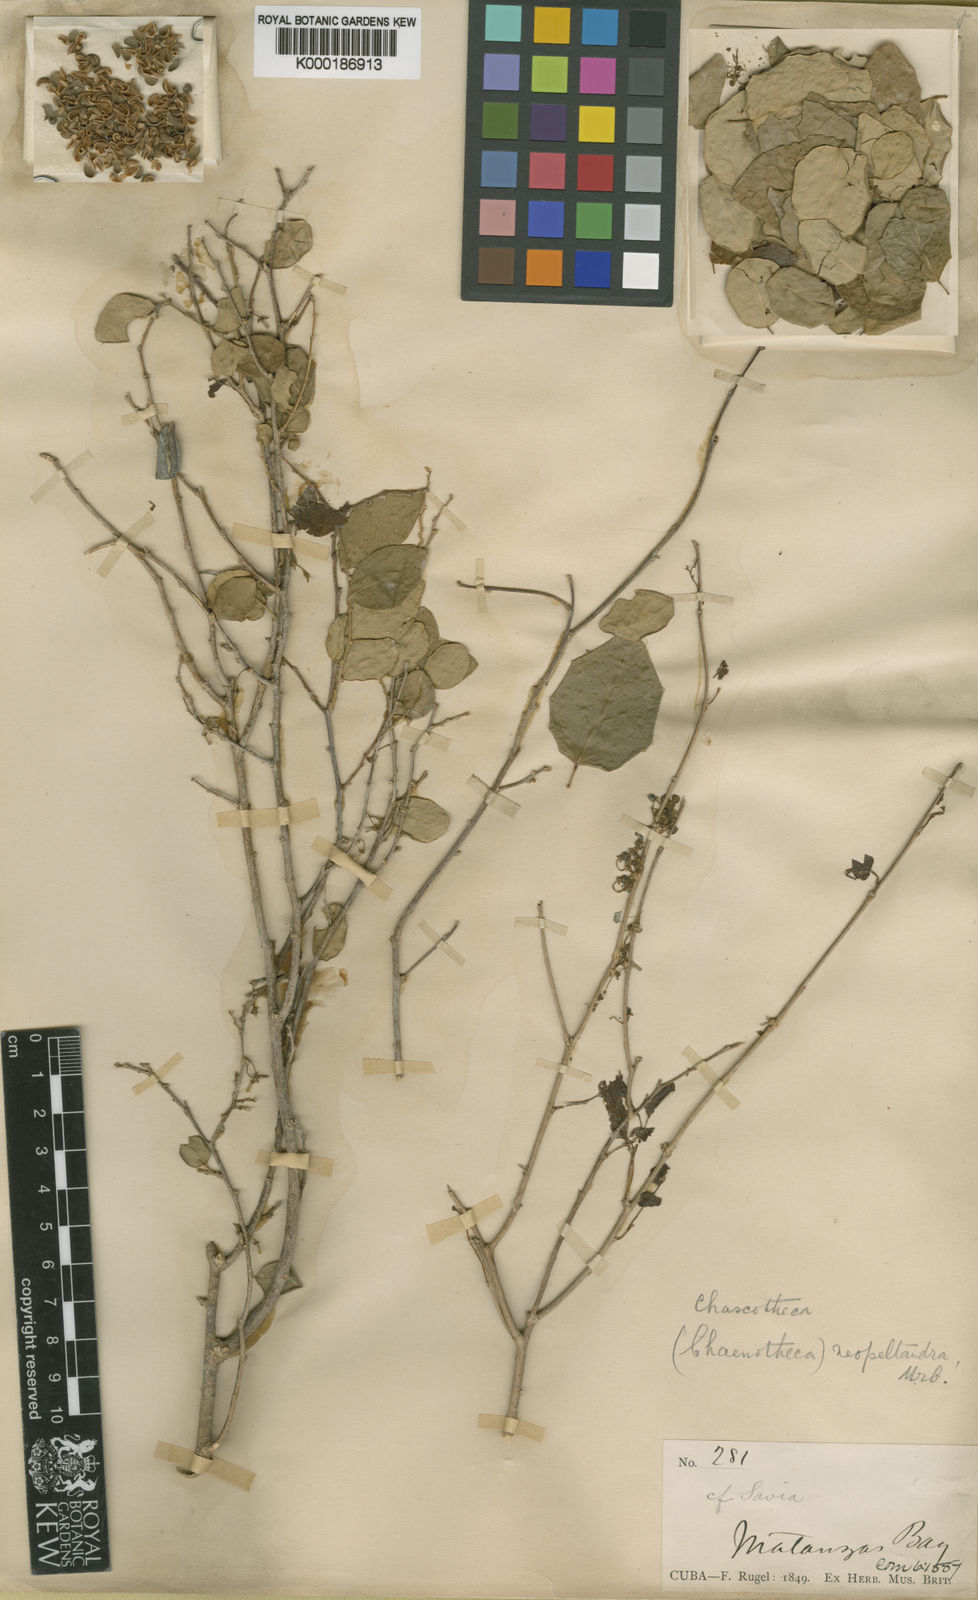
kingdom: Plantae
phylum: Tracheophyta
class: Magnoliopsida
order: Malpighiales
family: Phyllanthaceae
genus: Chascotheca
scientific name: Chascotheca neopeltandra
